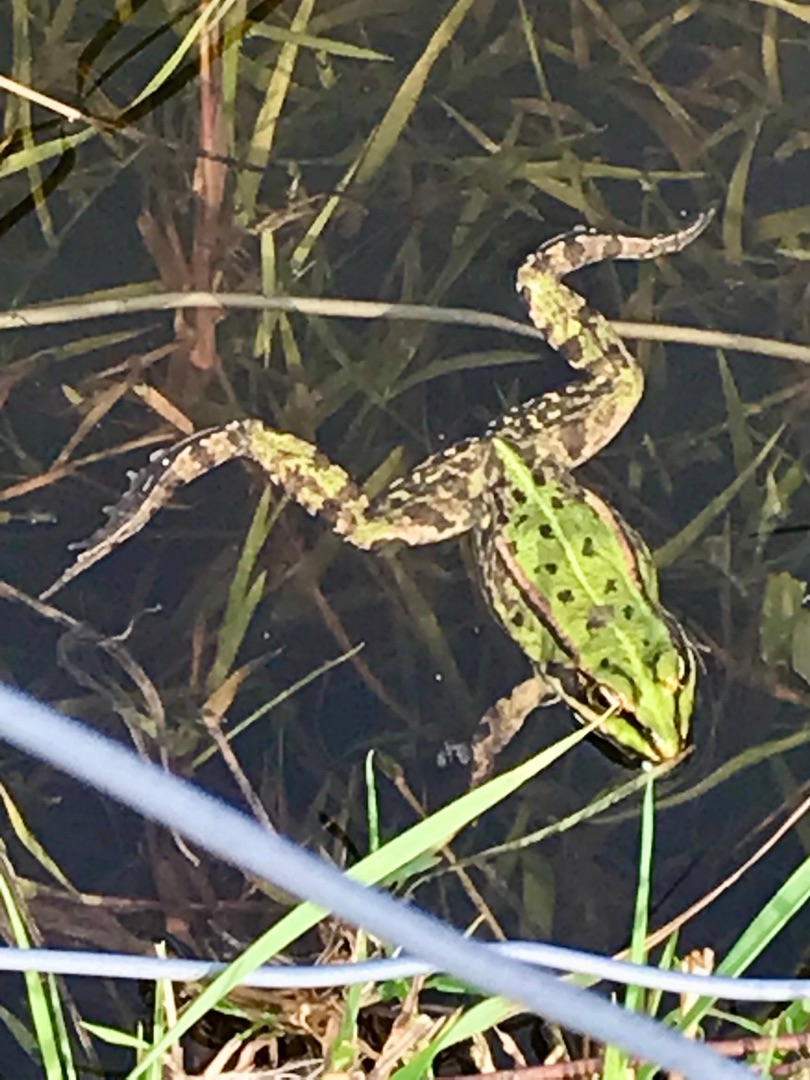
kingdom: Animalia
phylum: Chordata
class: Amphibia
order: Anura
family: Ranidae
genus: Pelophylax
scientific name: Pelophylax lessonae
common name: Grøn frø
